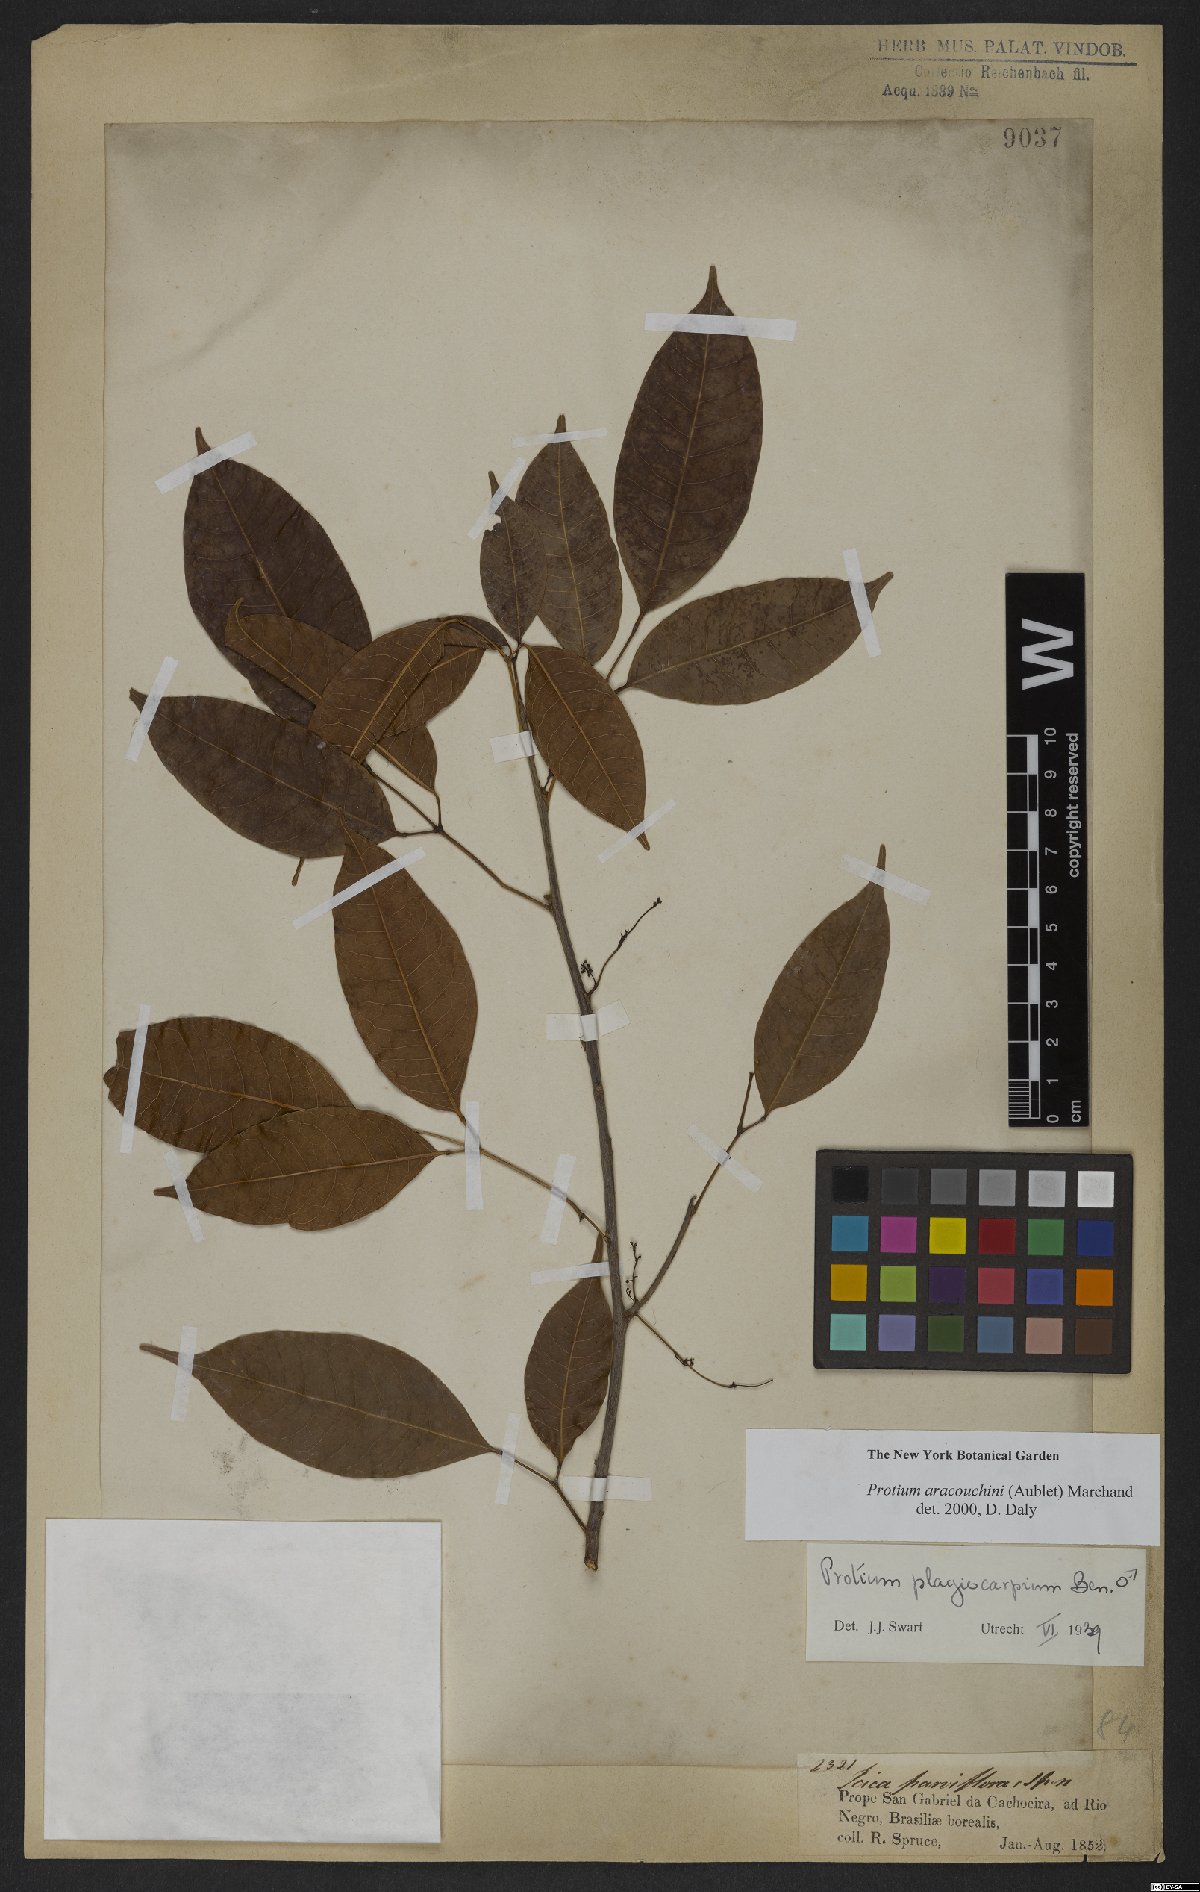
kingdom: Plantae
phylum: Tracheophyta
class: Magnoliopsida
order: Sapindales
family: Burseraceae
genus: Protium
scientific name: Protium calanense
